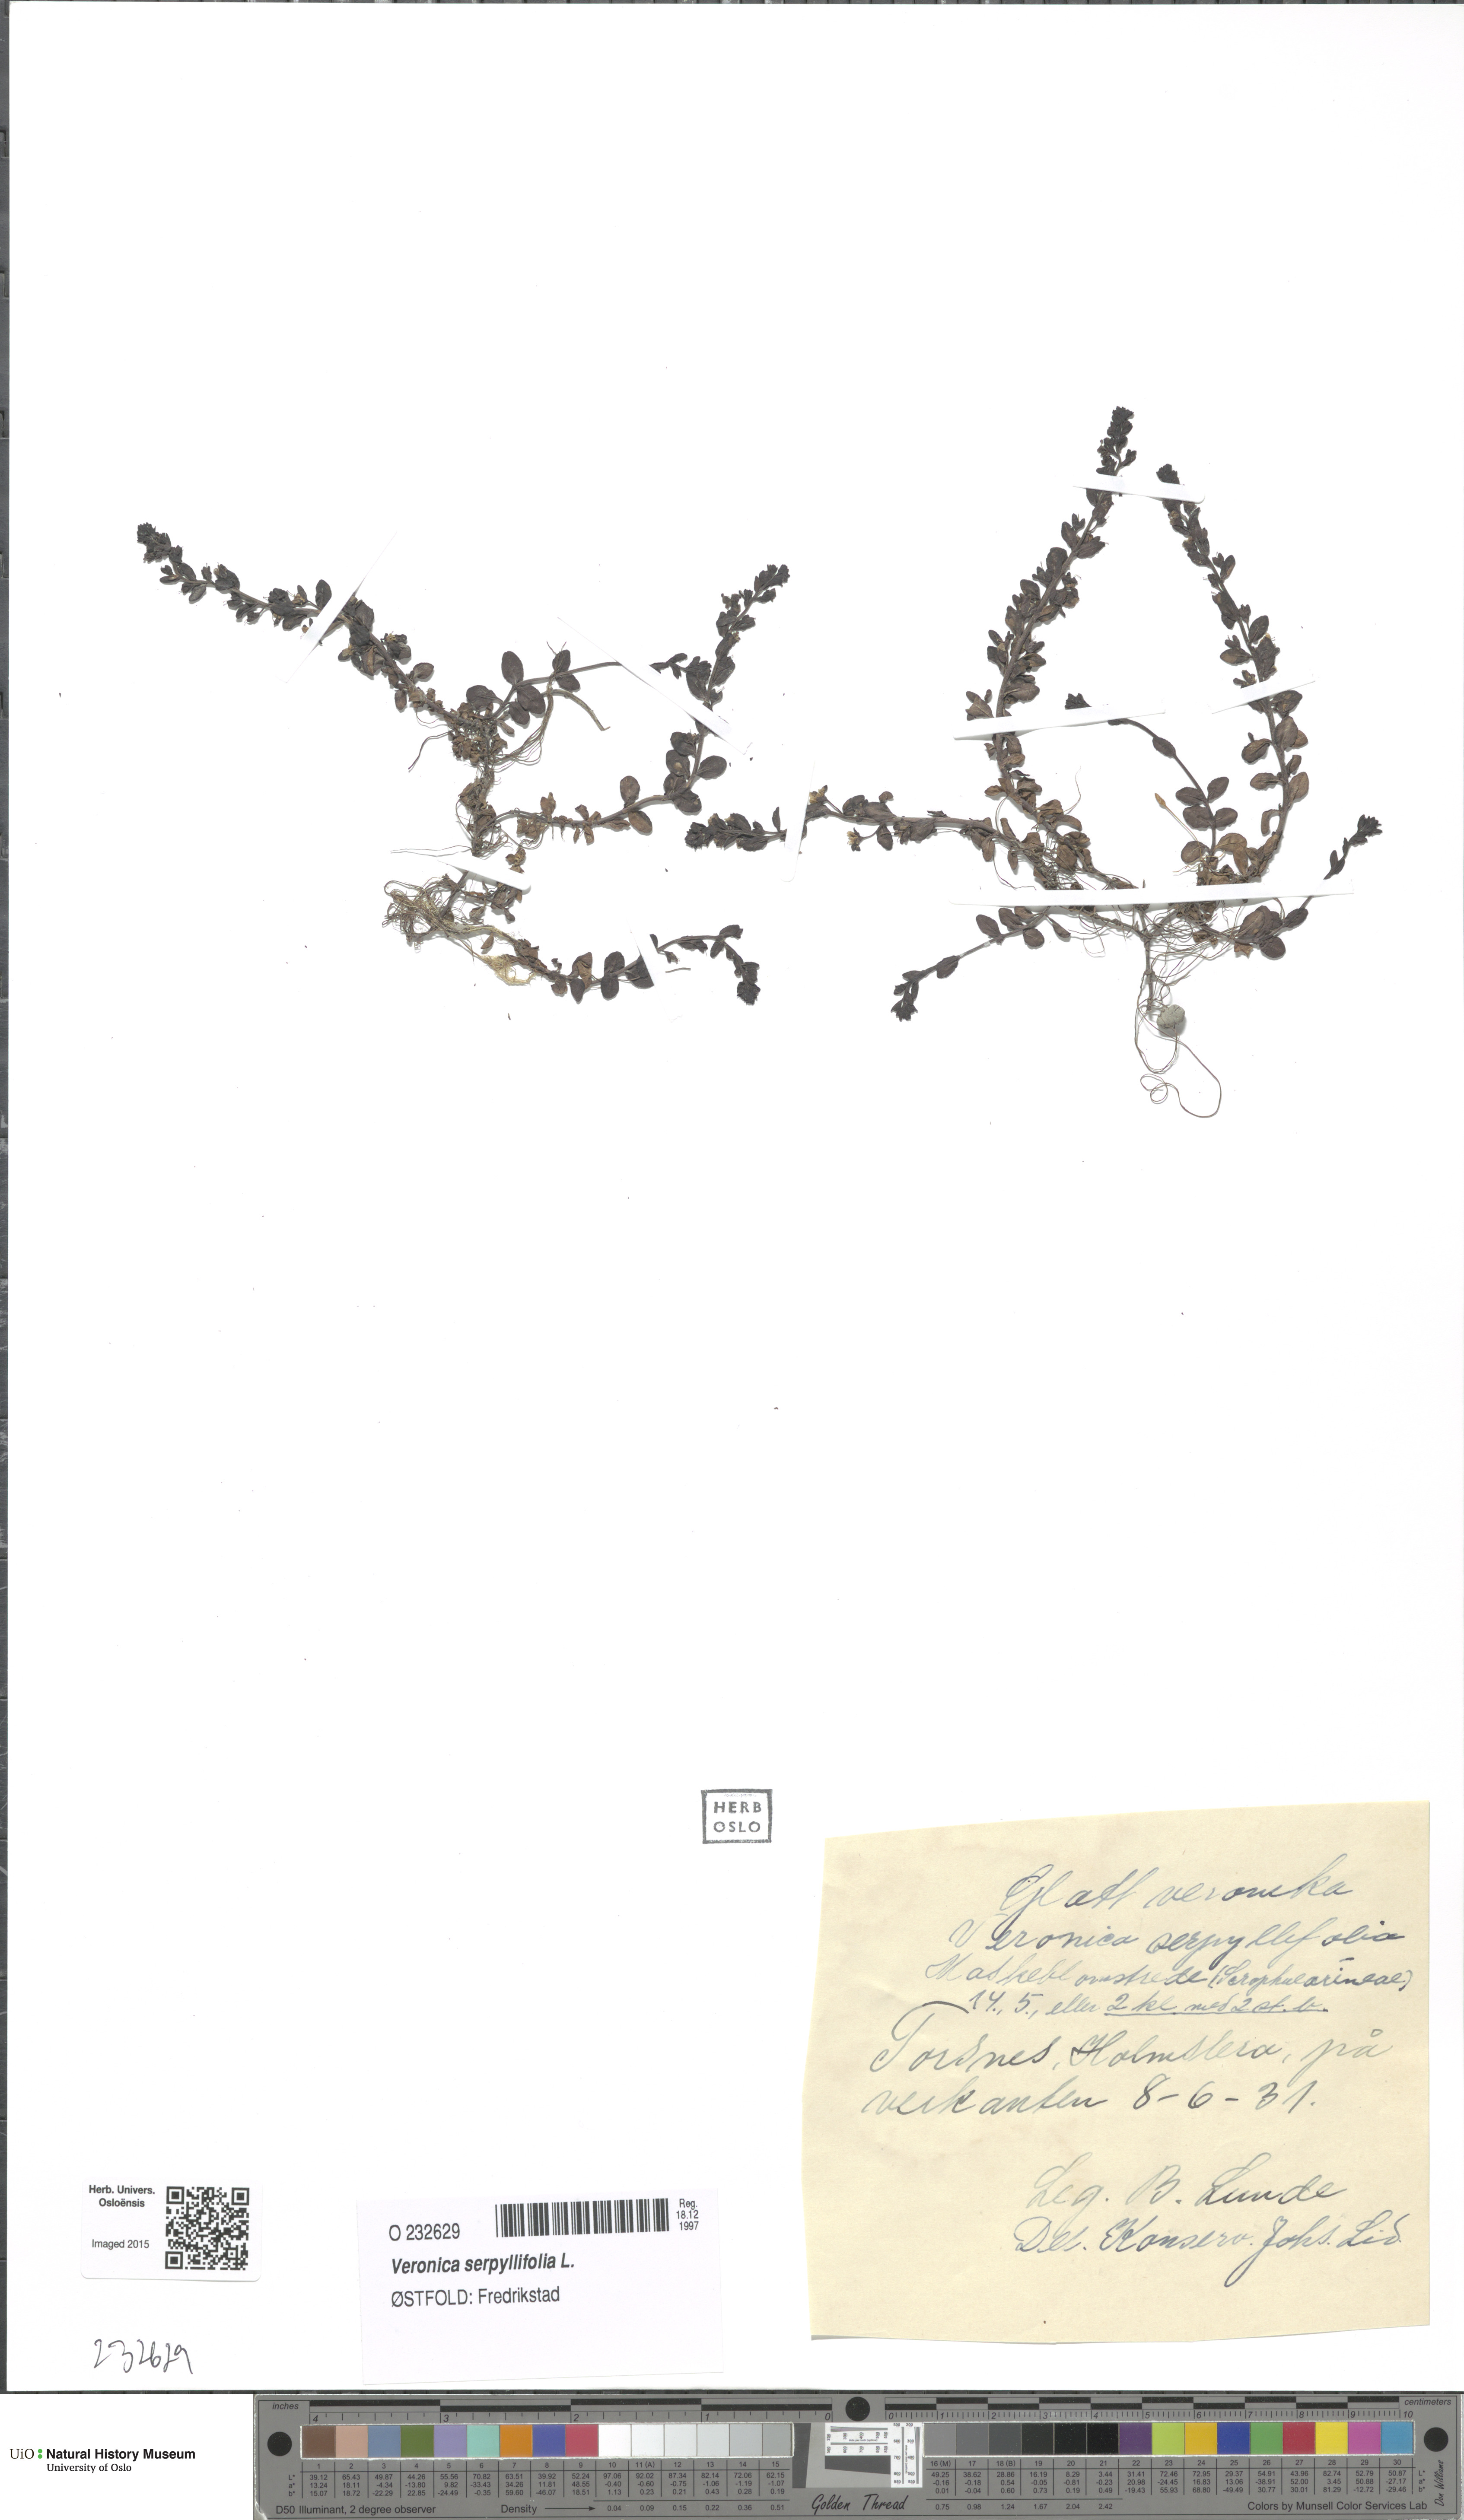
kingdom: Plantae
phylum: Tracheophyta
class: Magnoliopsida
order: Lamiales
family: Plantaginaceae
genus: Veronica
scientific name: Veronica serpyllifolia
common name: Thyme-leaved speedwell
